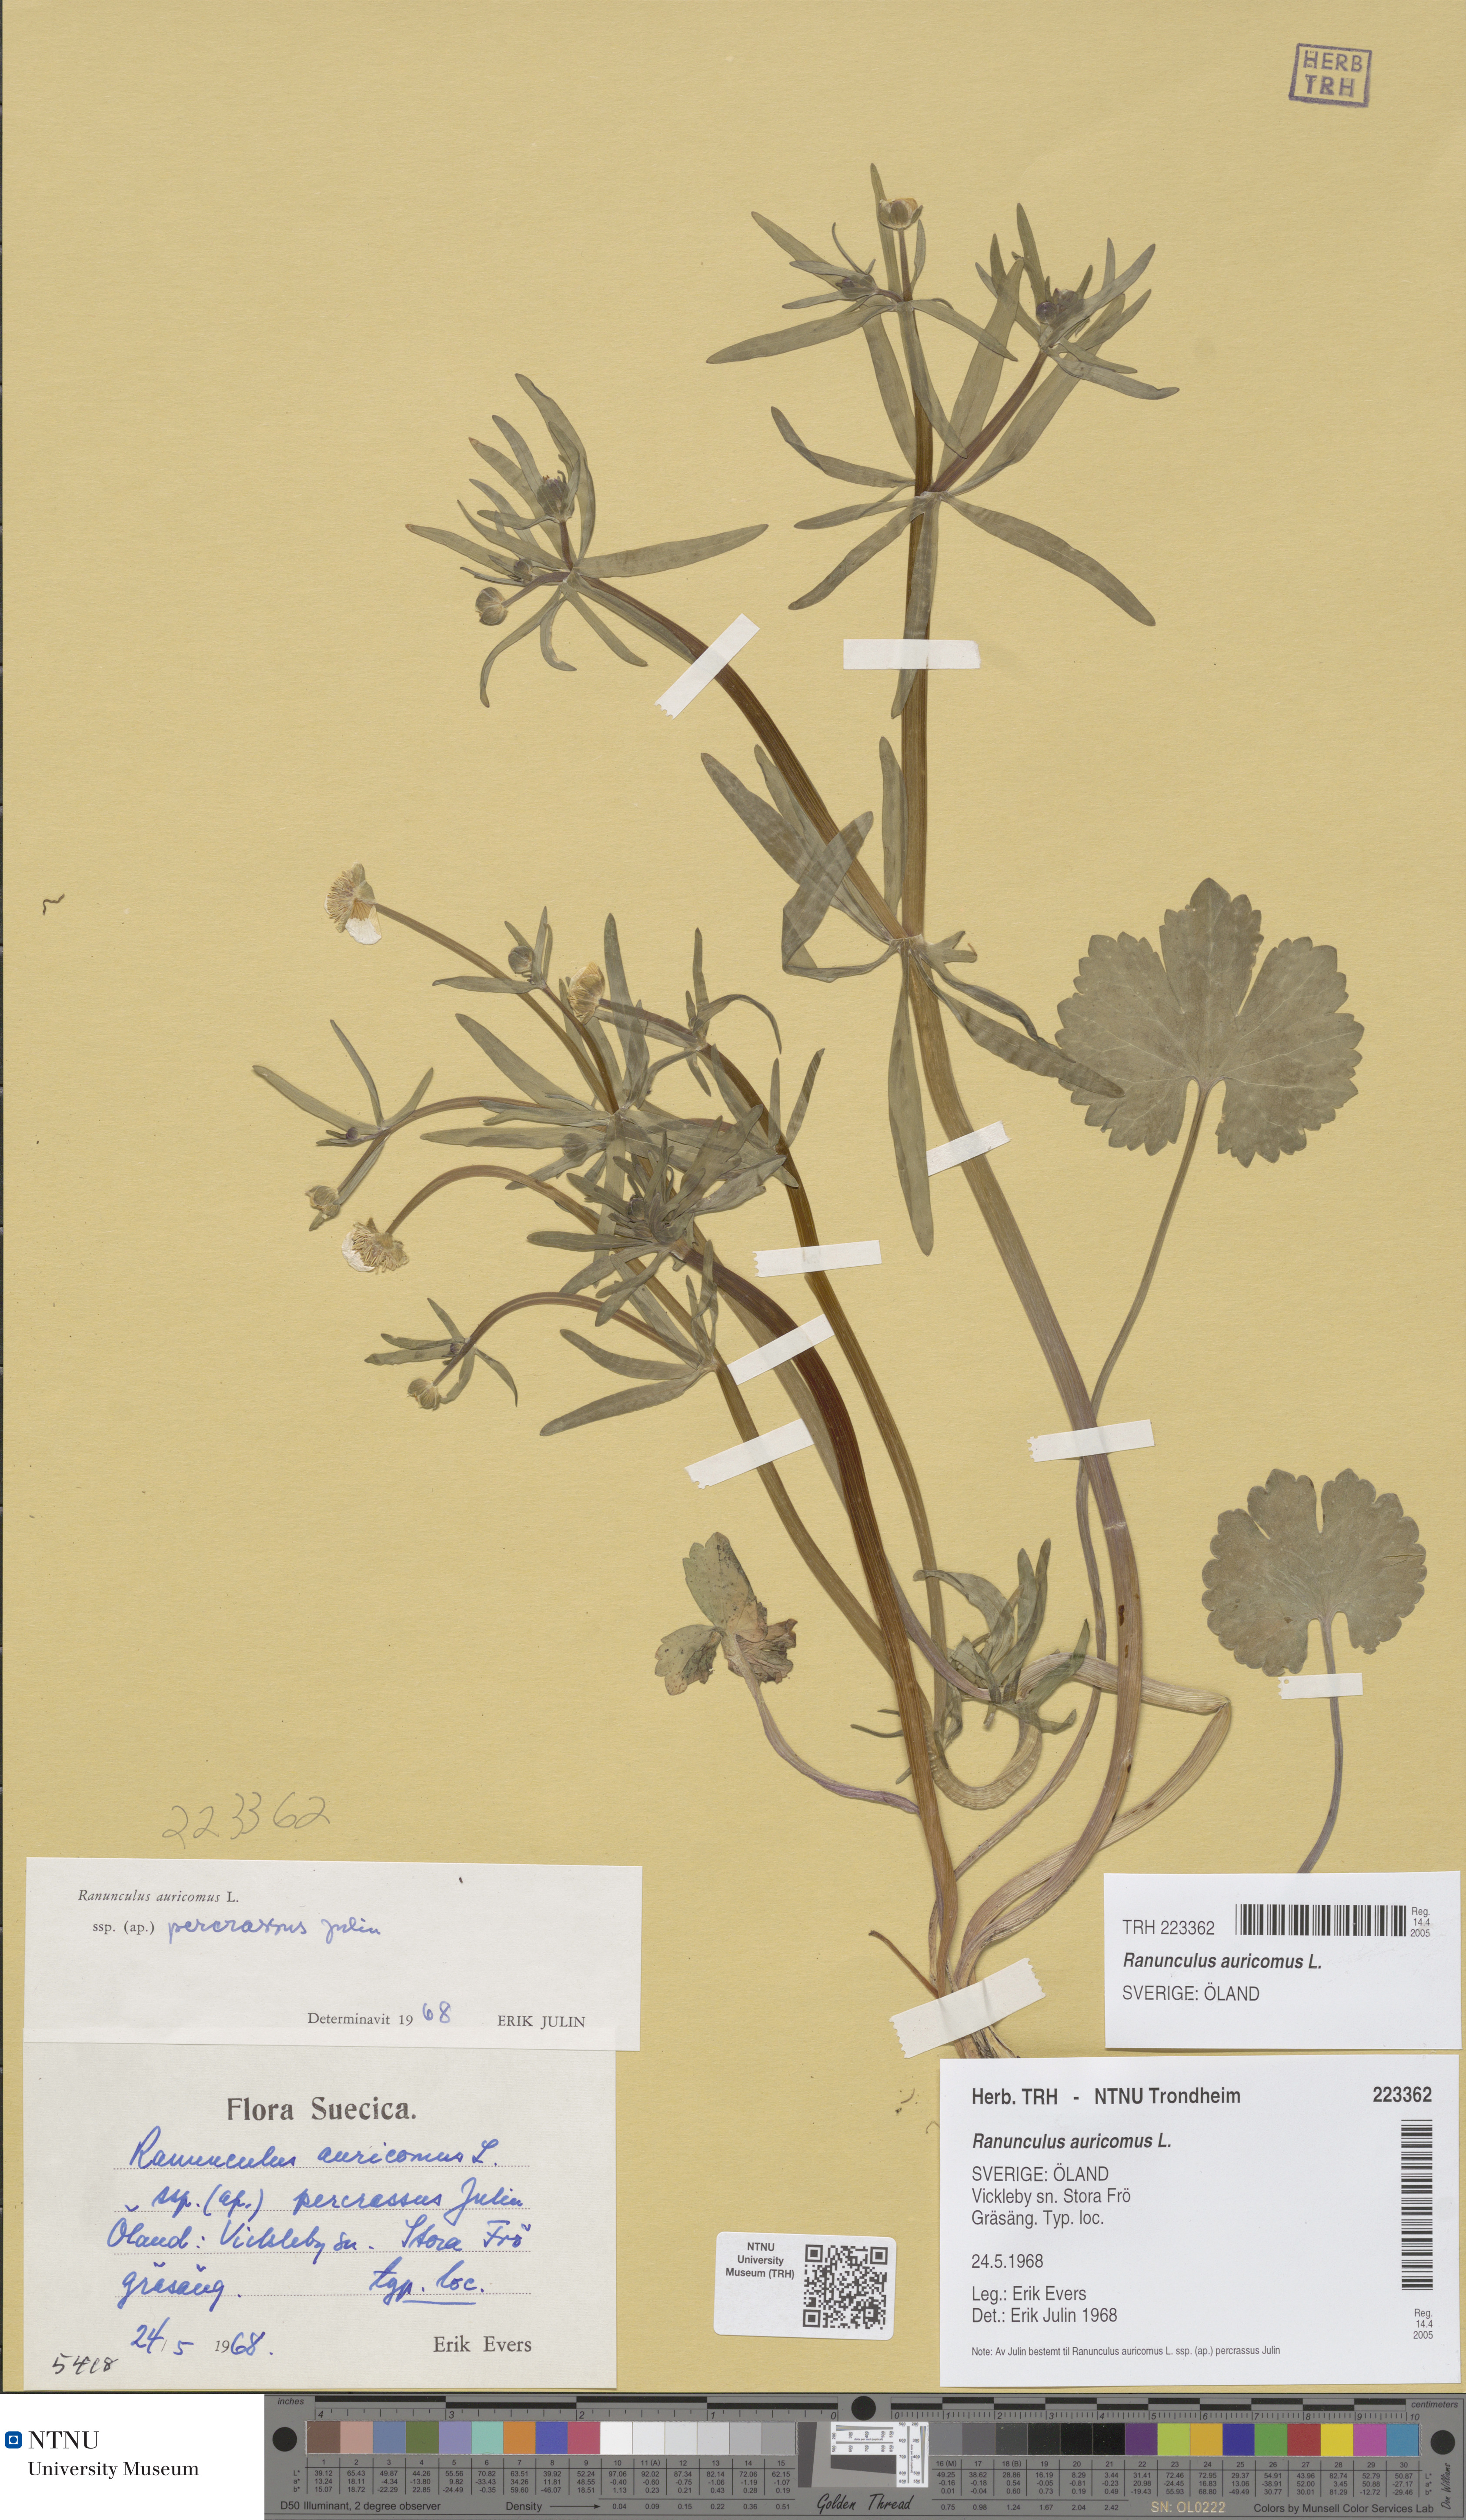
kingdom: Plantae
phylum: Tracheophyta
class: Magnoliopsida
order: Ranunculales
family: Ranunculaceae
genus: Ranunculus
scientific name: Ranunculus auricomus
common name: Goldilocks buttercup
